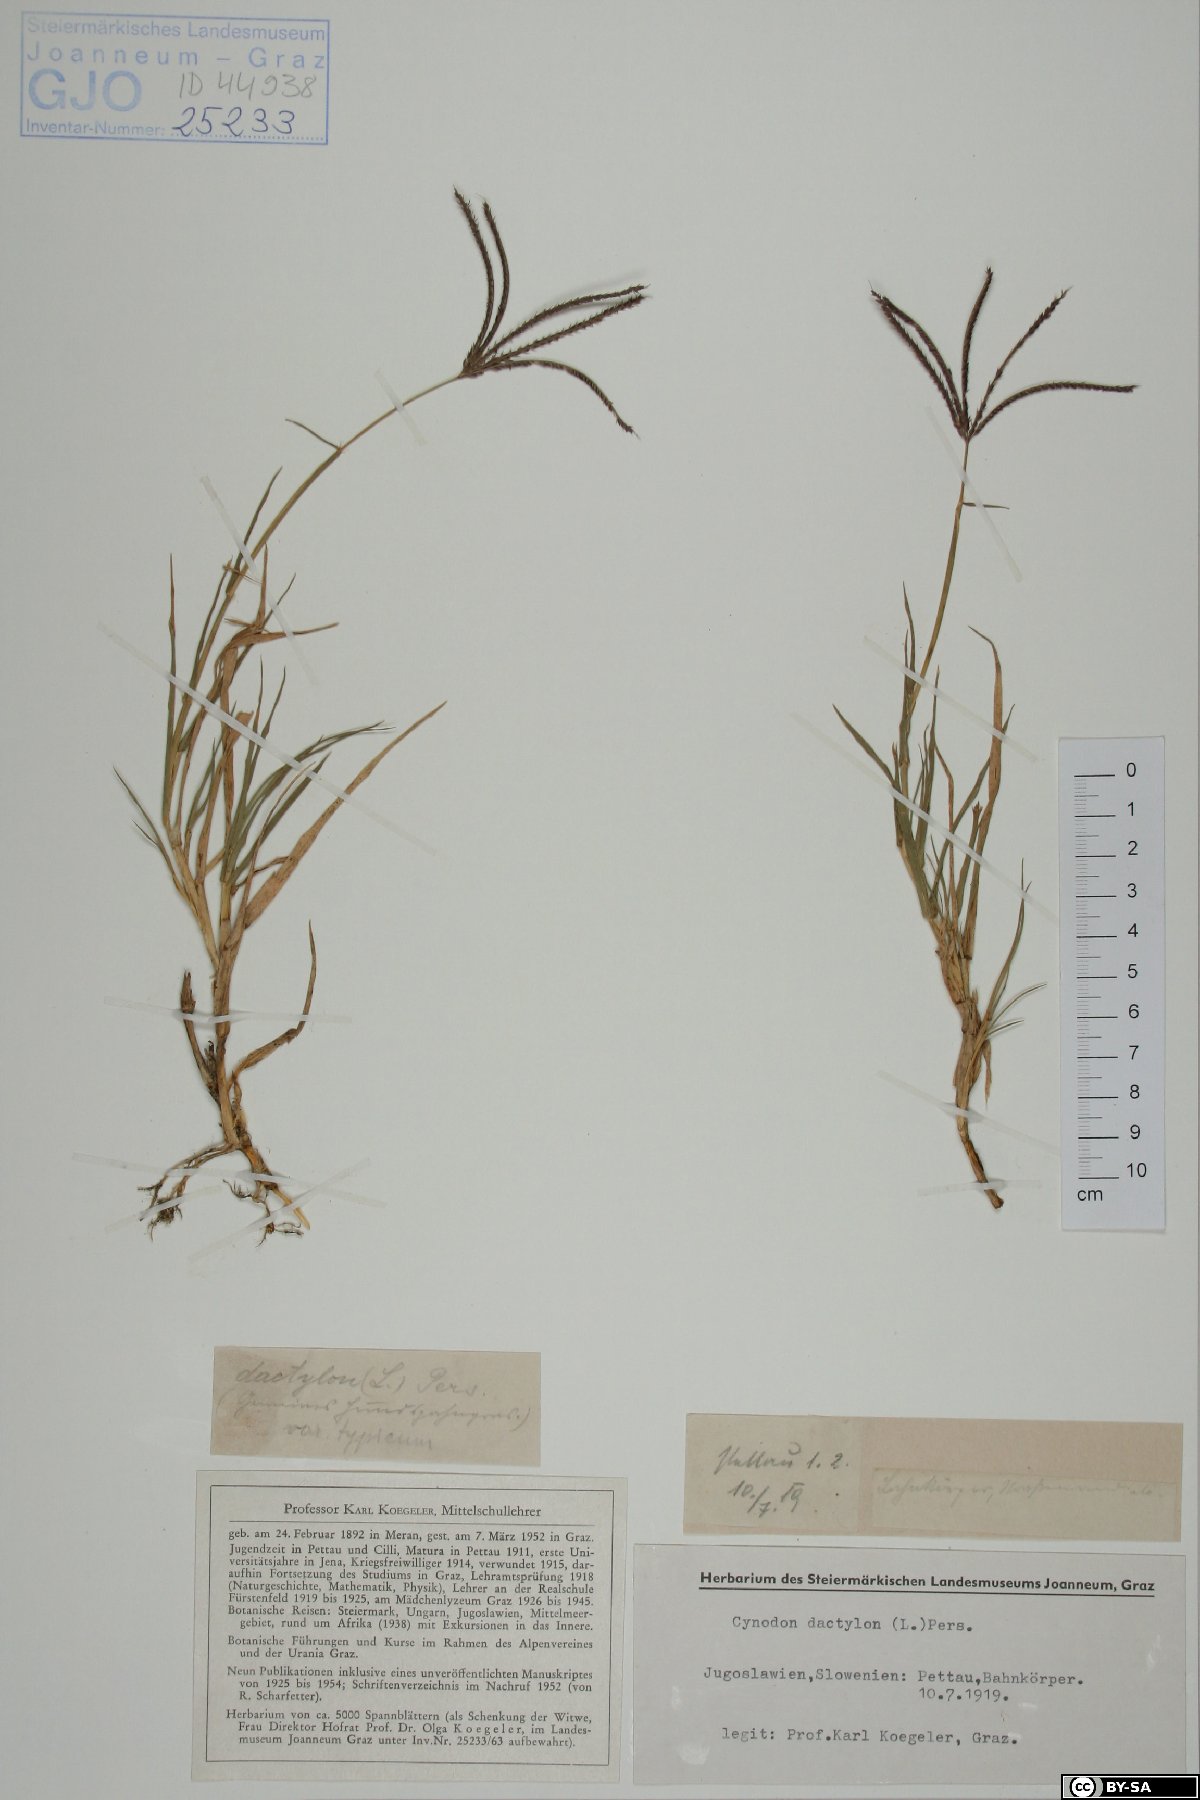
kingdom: Plantae
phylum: Tracheophyta
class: Liliopsida
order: Poales
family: Poaceae
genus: Cynodon
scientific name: Cynodon dactylon
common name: Bermuda grass
